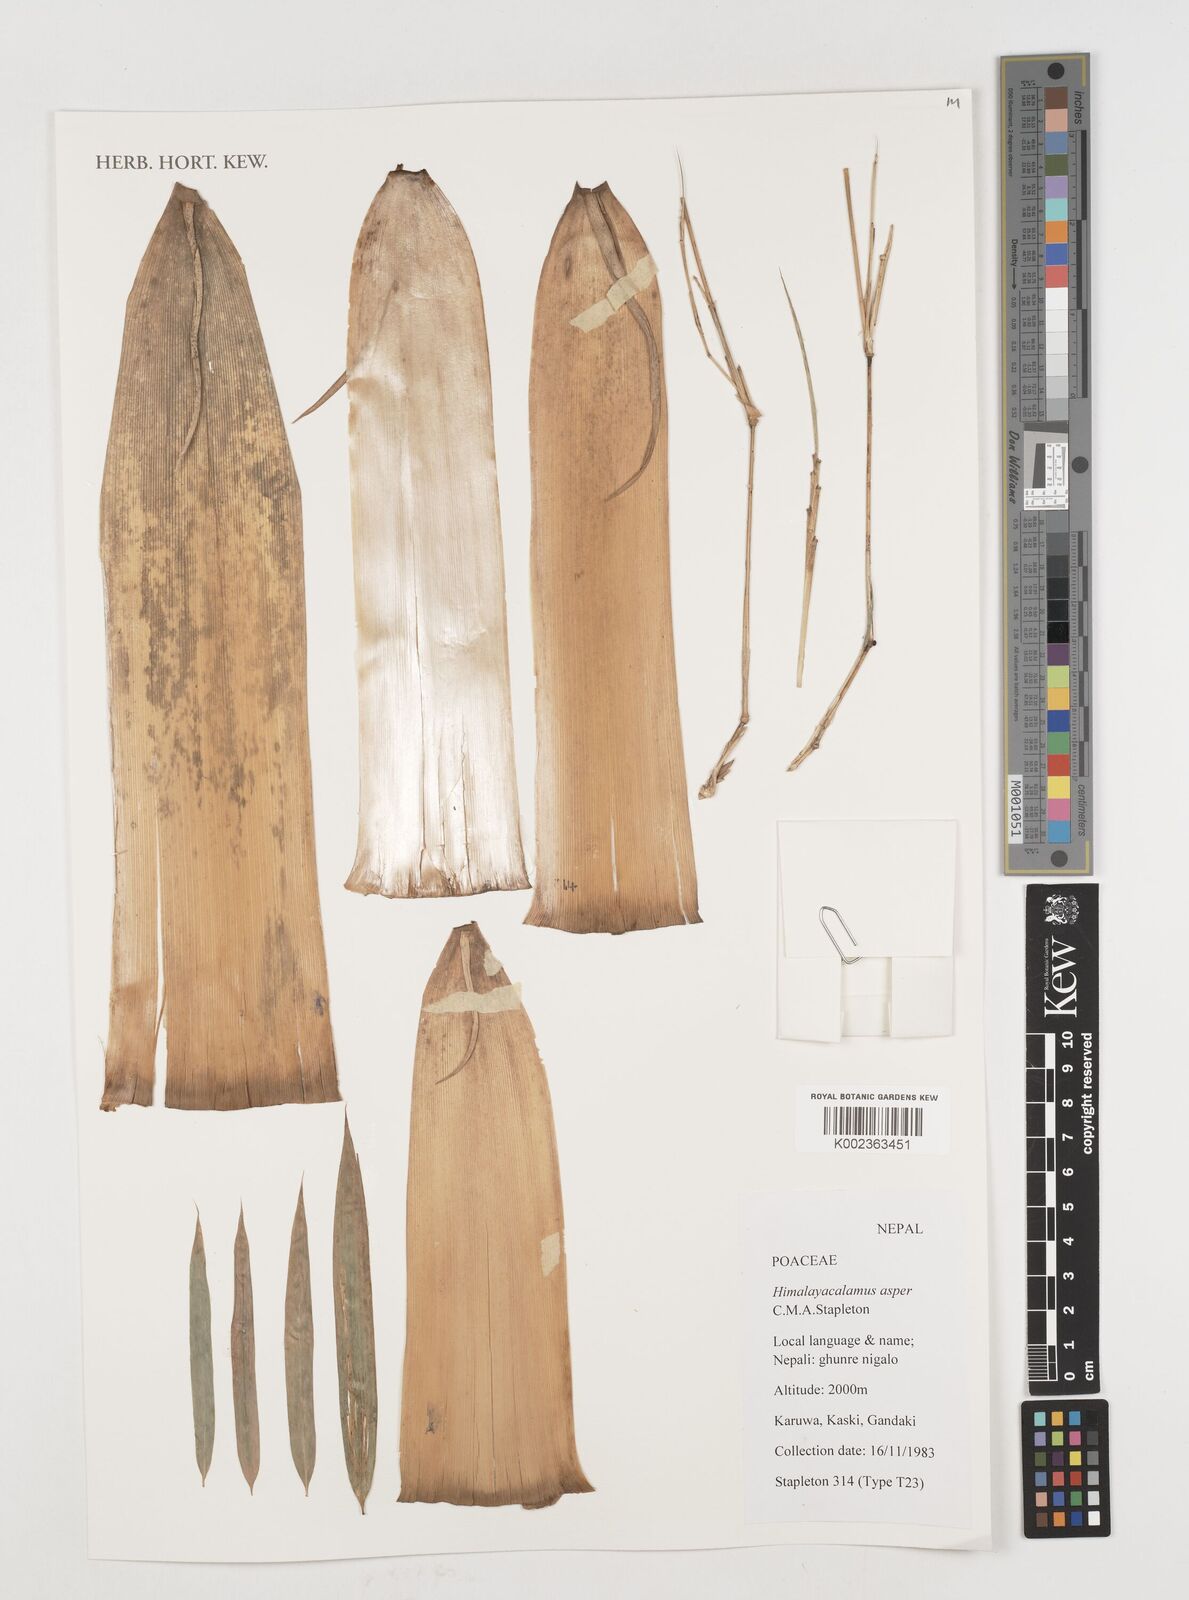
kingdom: Plantae
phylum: Tracheophyta
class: Liliopsida
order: Poales
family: Poaceae
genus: Himalayacalamus
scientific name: Himalayacalamus asper
